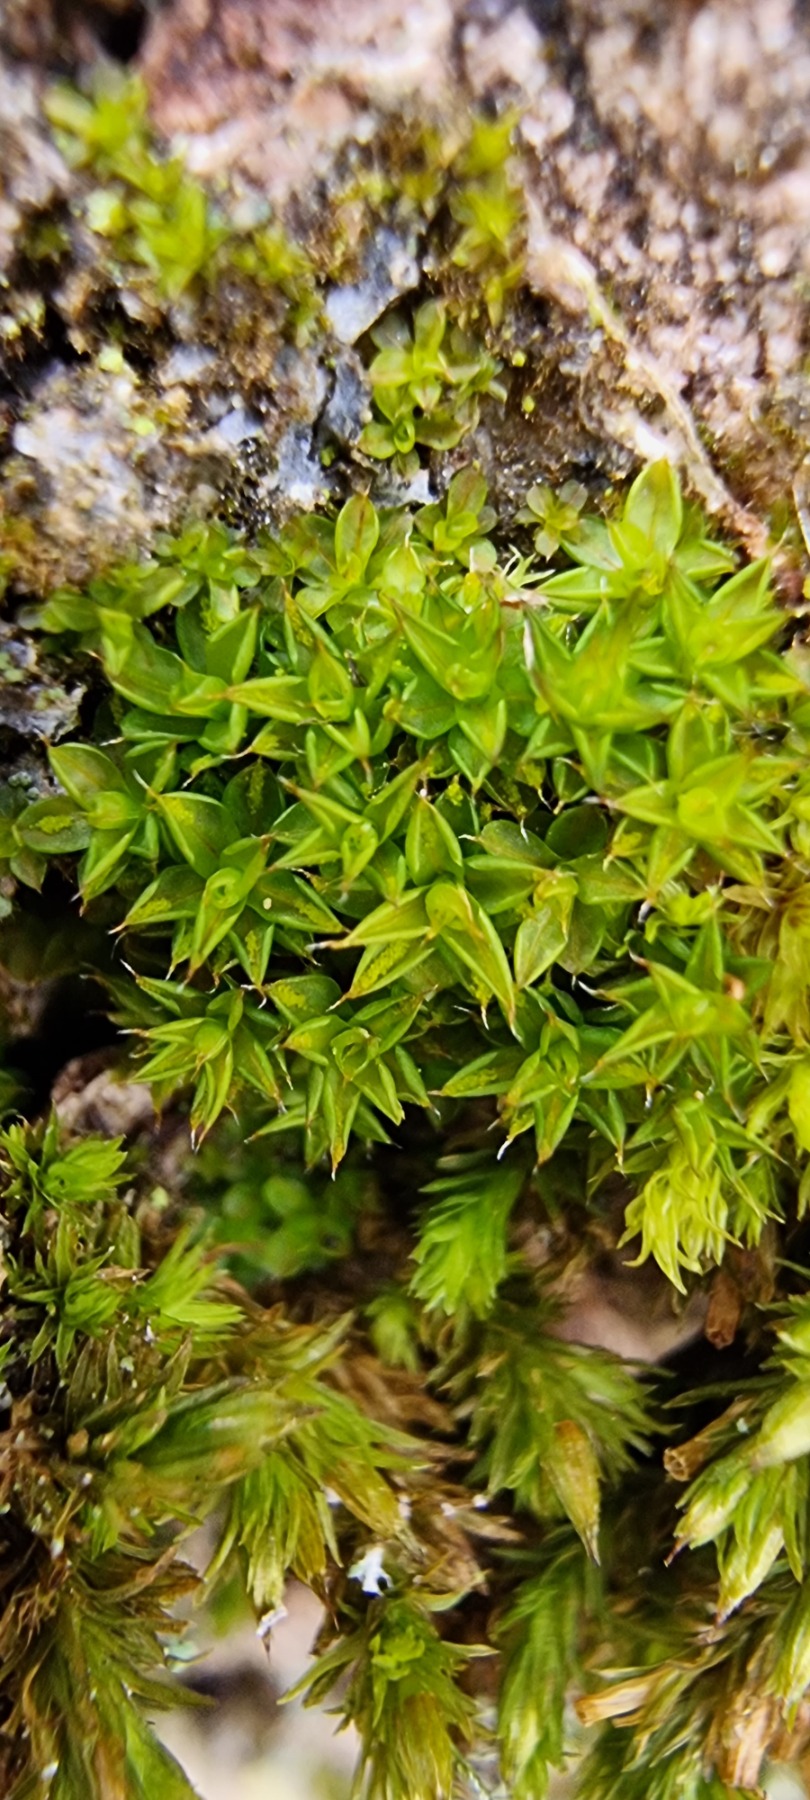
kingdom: Plantae
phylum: Bryophyta
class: Bryopsida
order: Pottiales
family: Pottiaceae
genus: Syntrichia
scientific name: Syntrichia papillosa
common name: Bark-hårstjerne
